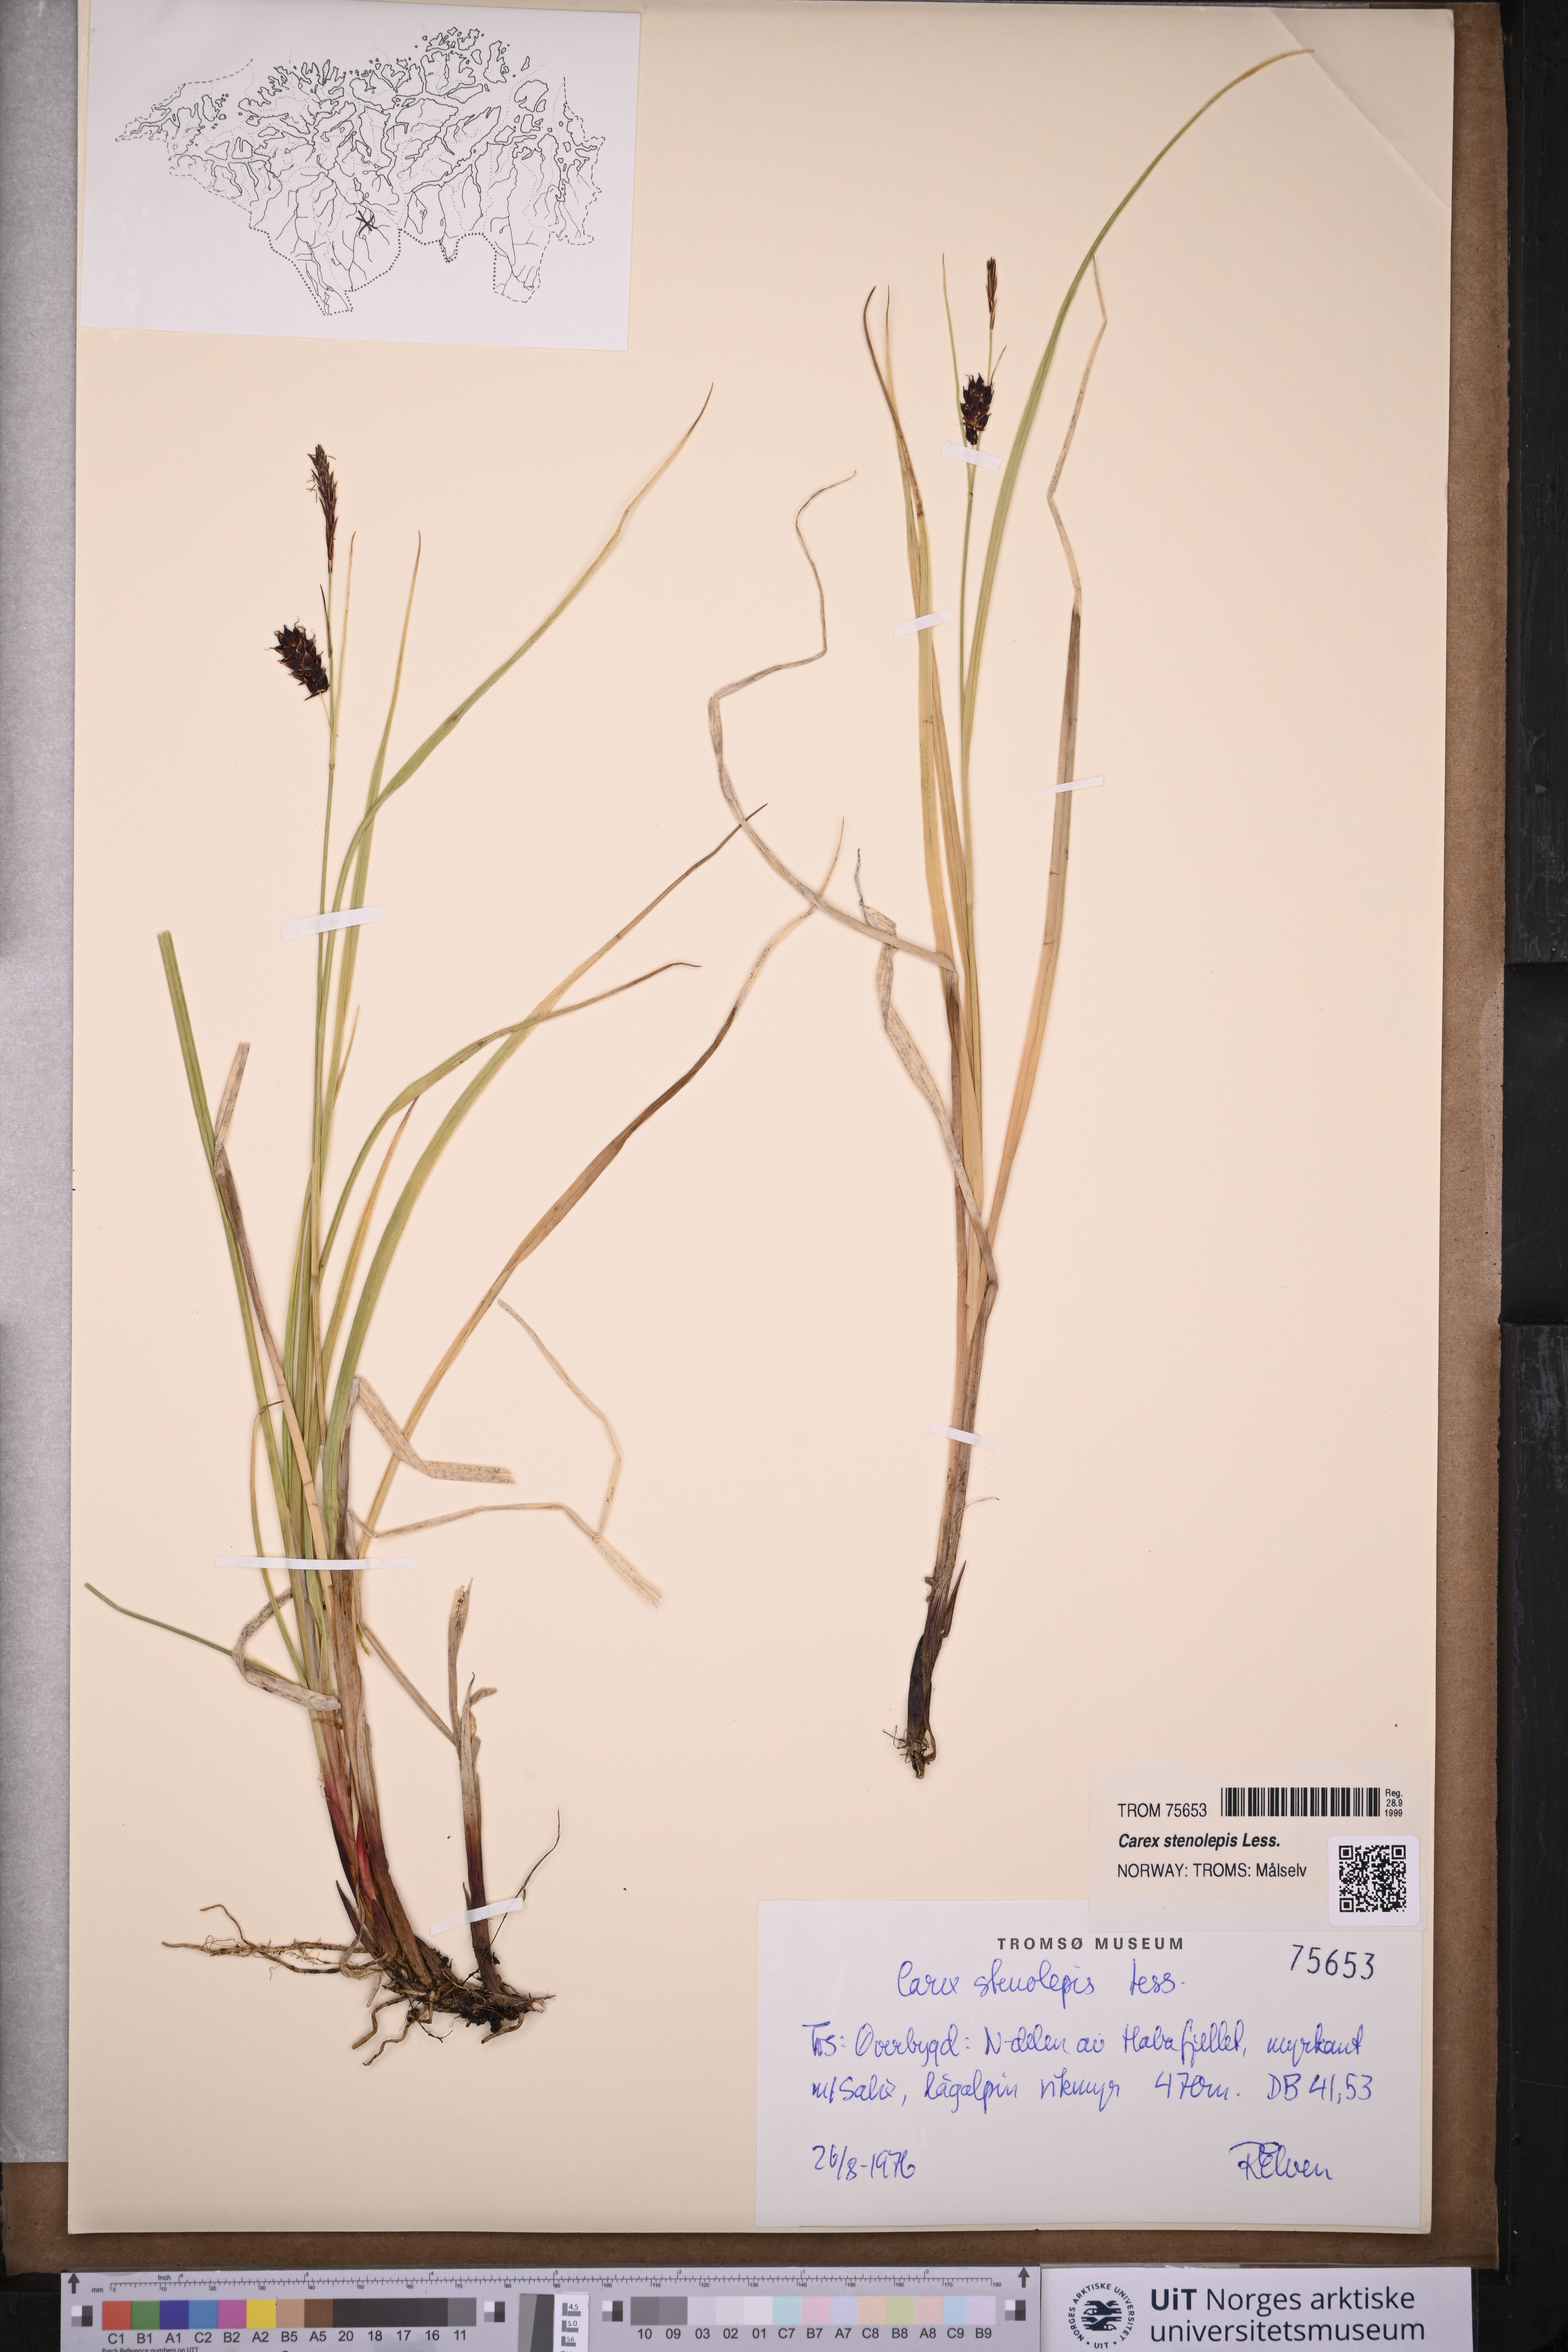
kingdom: Plantae
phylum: Tracheophyta
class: Liliopsida
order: Poales
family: Cyperaceae
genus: Carex
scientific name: Carex grahamii
